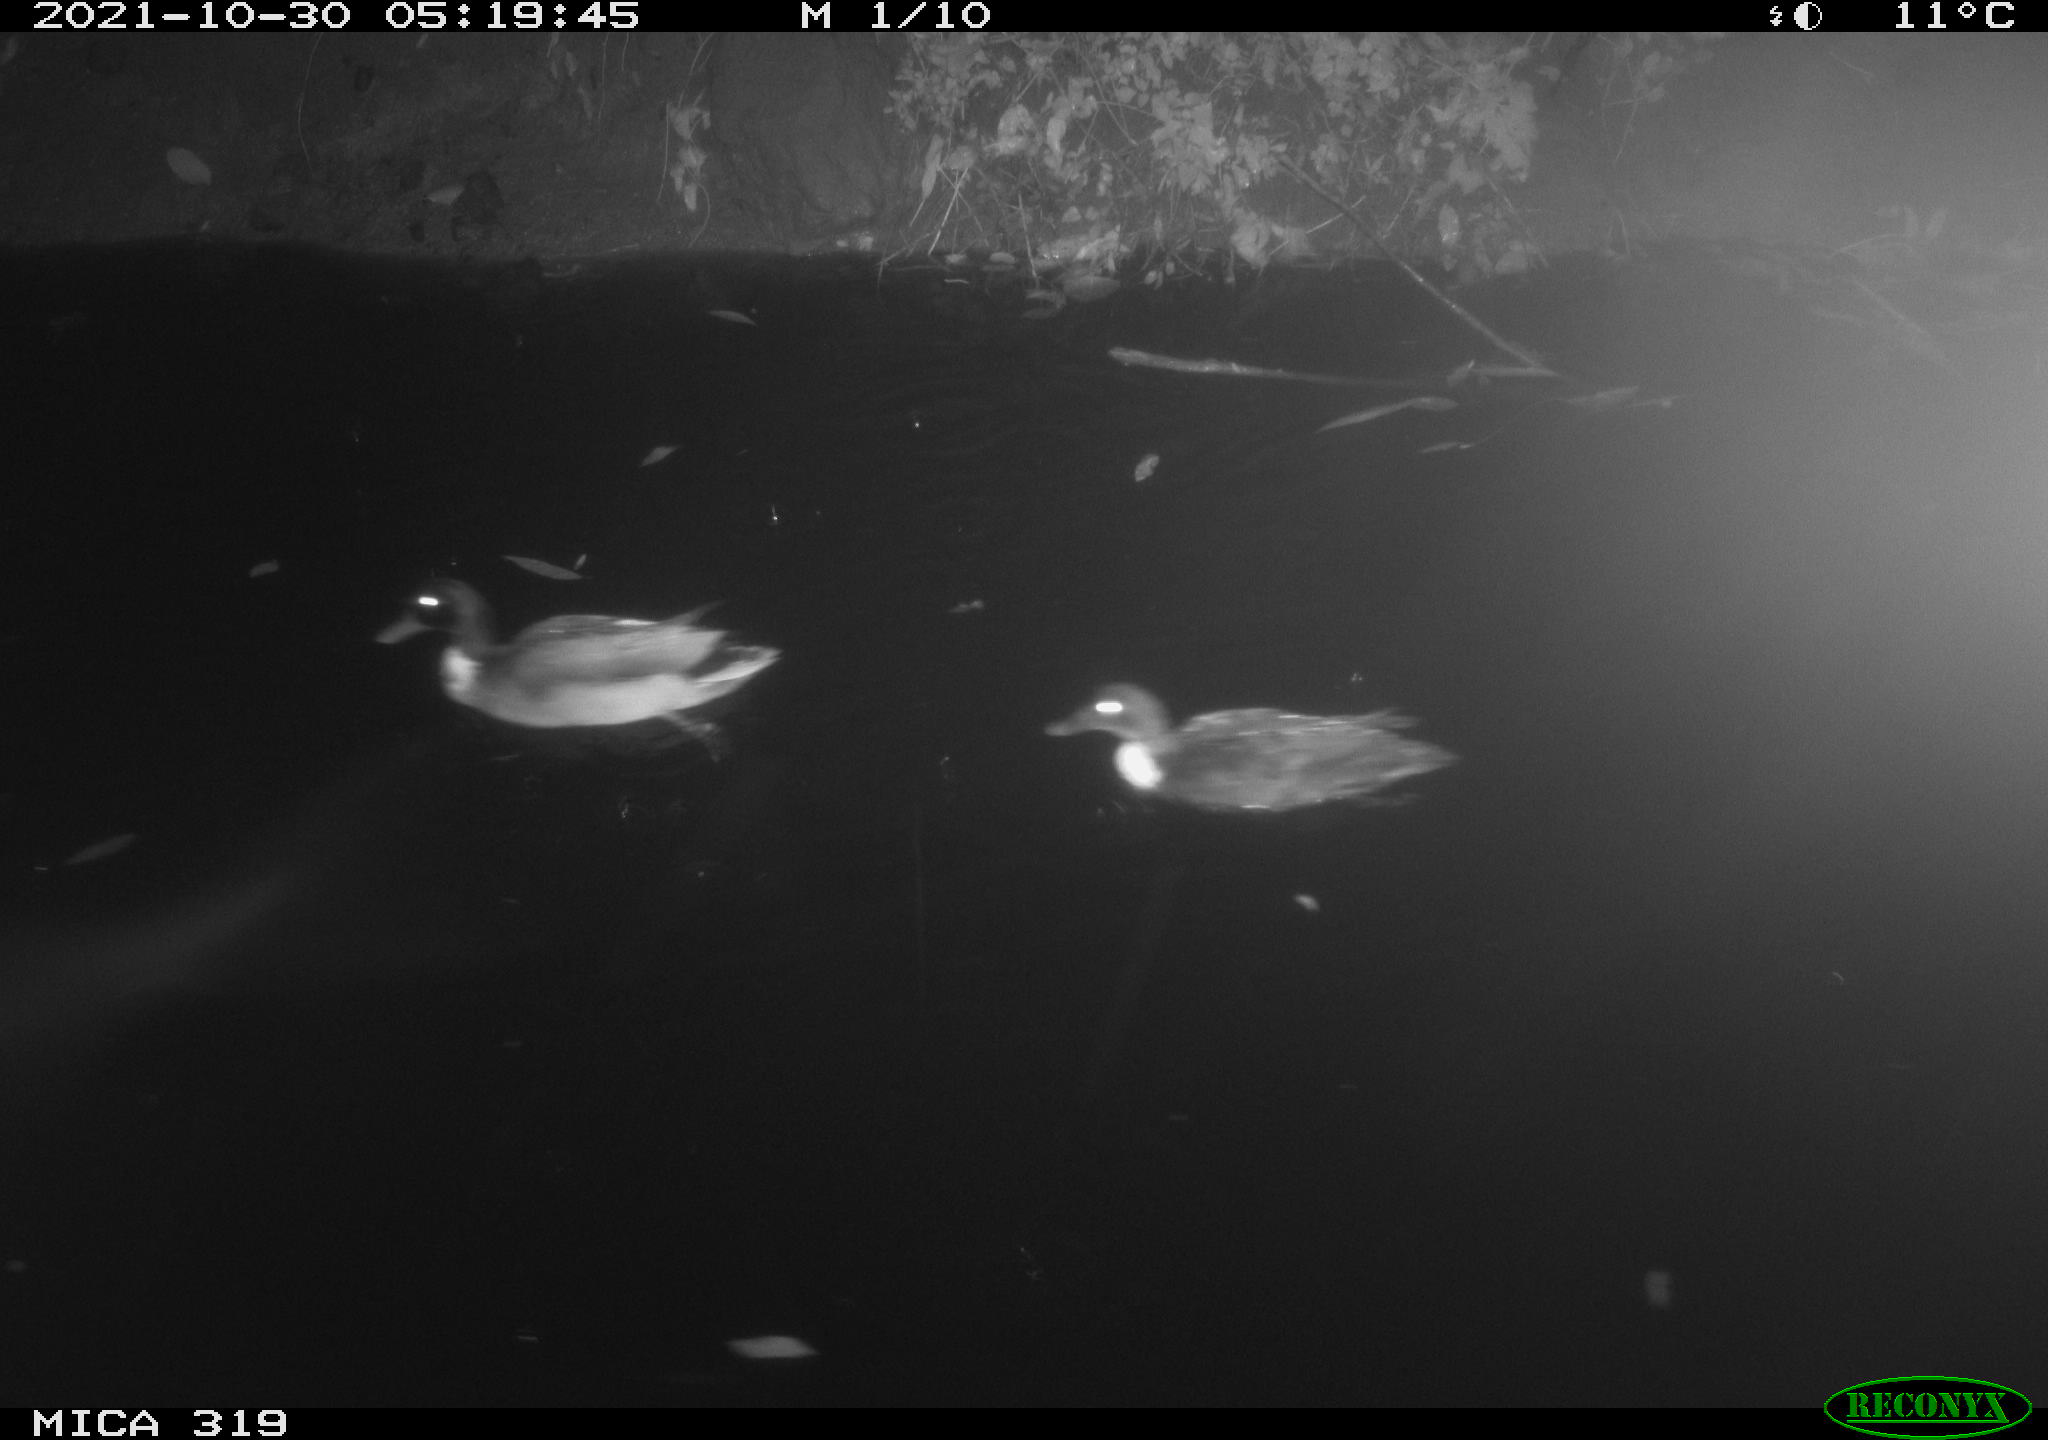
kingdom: Animalia
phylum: Chordata
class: Aves
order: Anseriformes
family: Anatidae
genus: Anas
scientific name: Anas platyrhynchos
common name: Mallard
